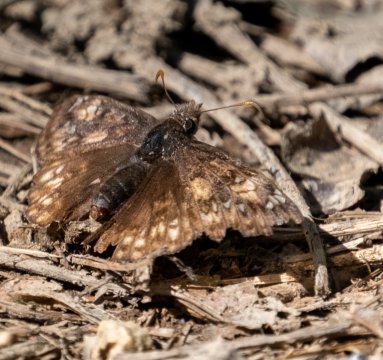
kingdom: Animalia
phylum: Arthropoda
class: Insecta
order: Lepidoptera
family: Hesperiidae
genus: Gesta
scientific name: Gesta
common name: Juvenal's Duskywing
